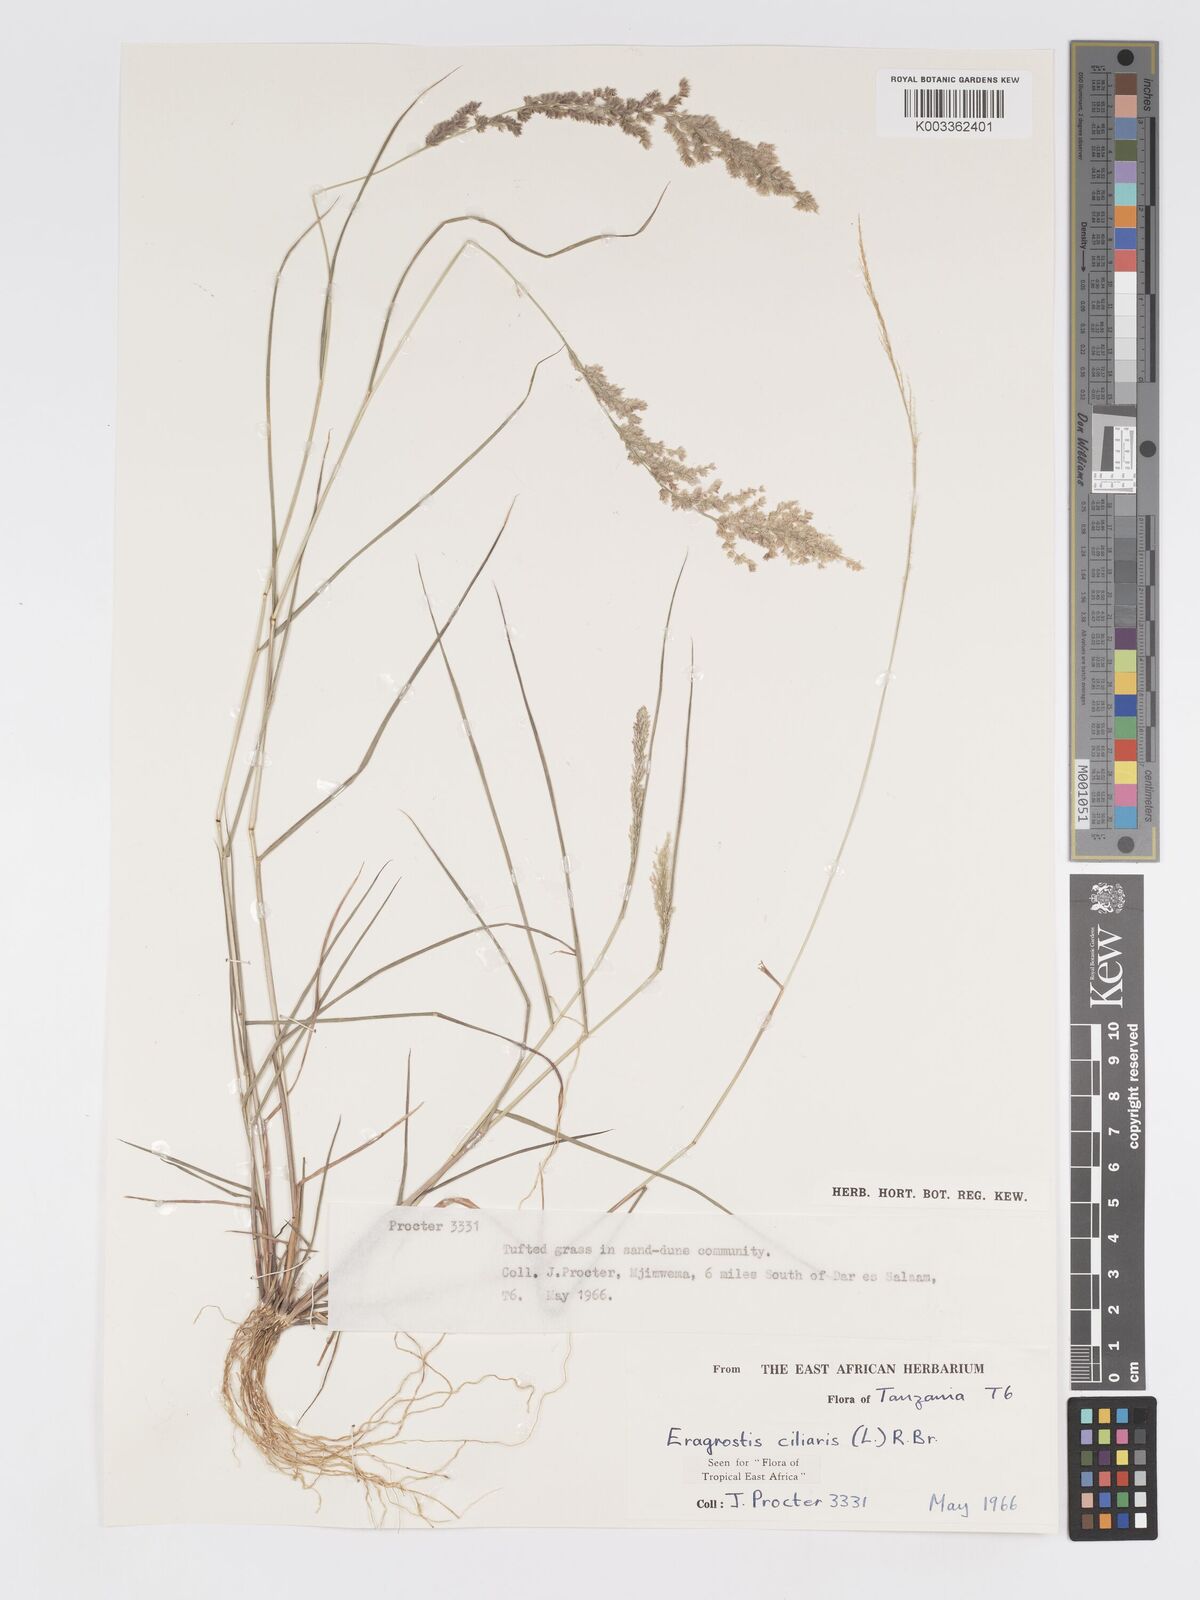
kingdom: Plantae
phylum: Tracheophyta
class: Liliopsida
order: Poales
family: Poaceae
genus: Eragrostis
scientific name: Eragrostis ciliaris
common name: Gophertail lovegrass
